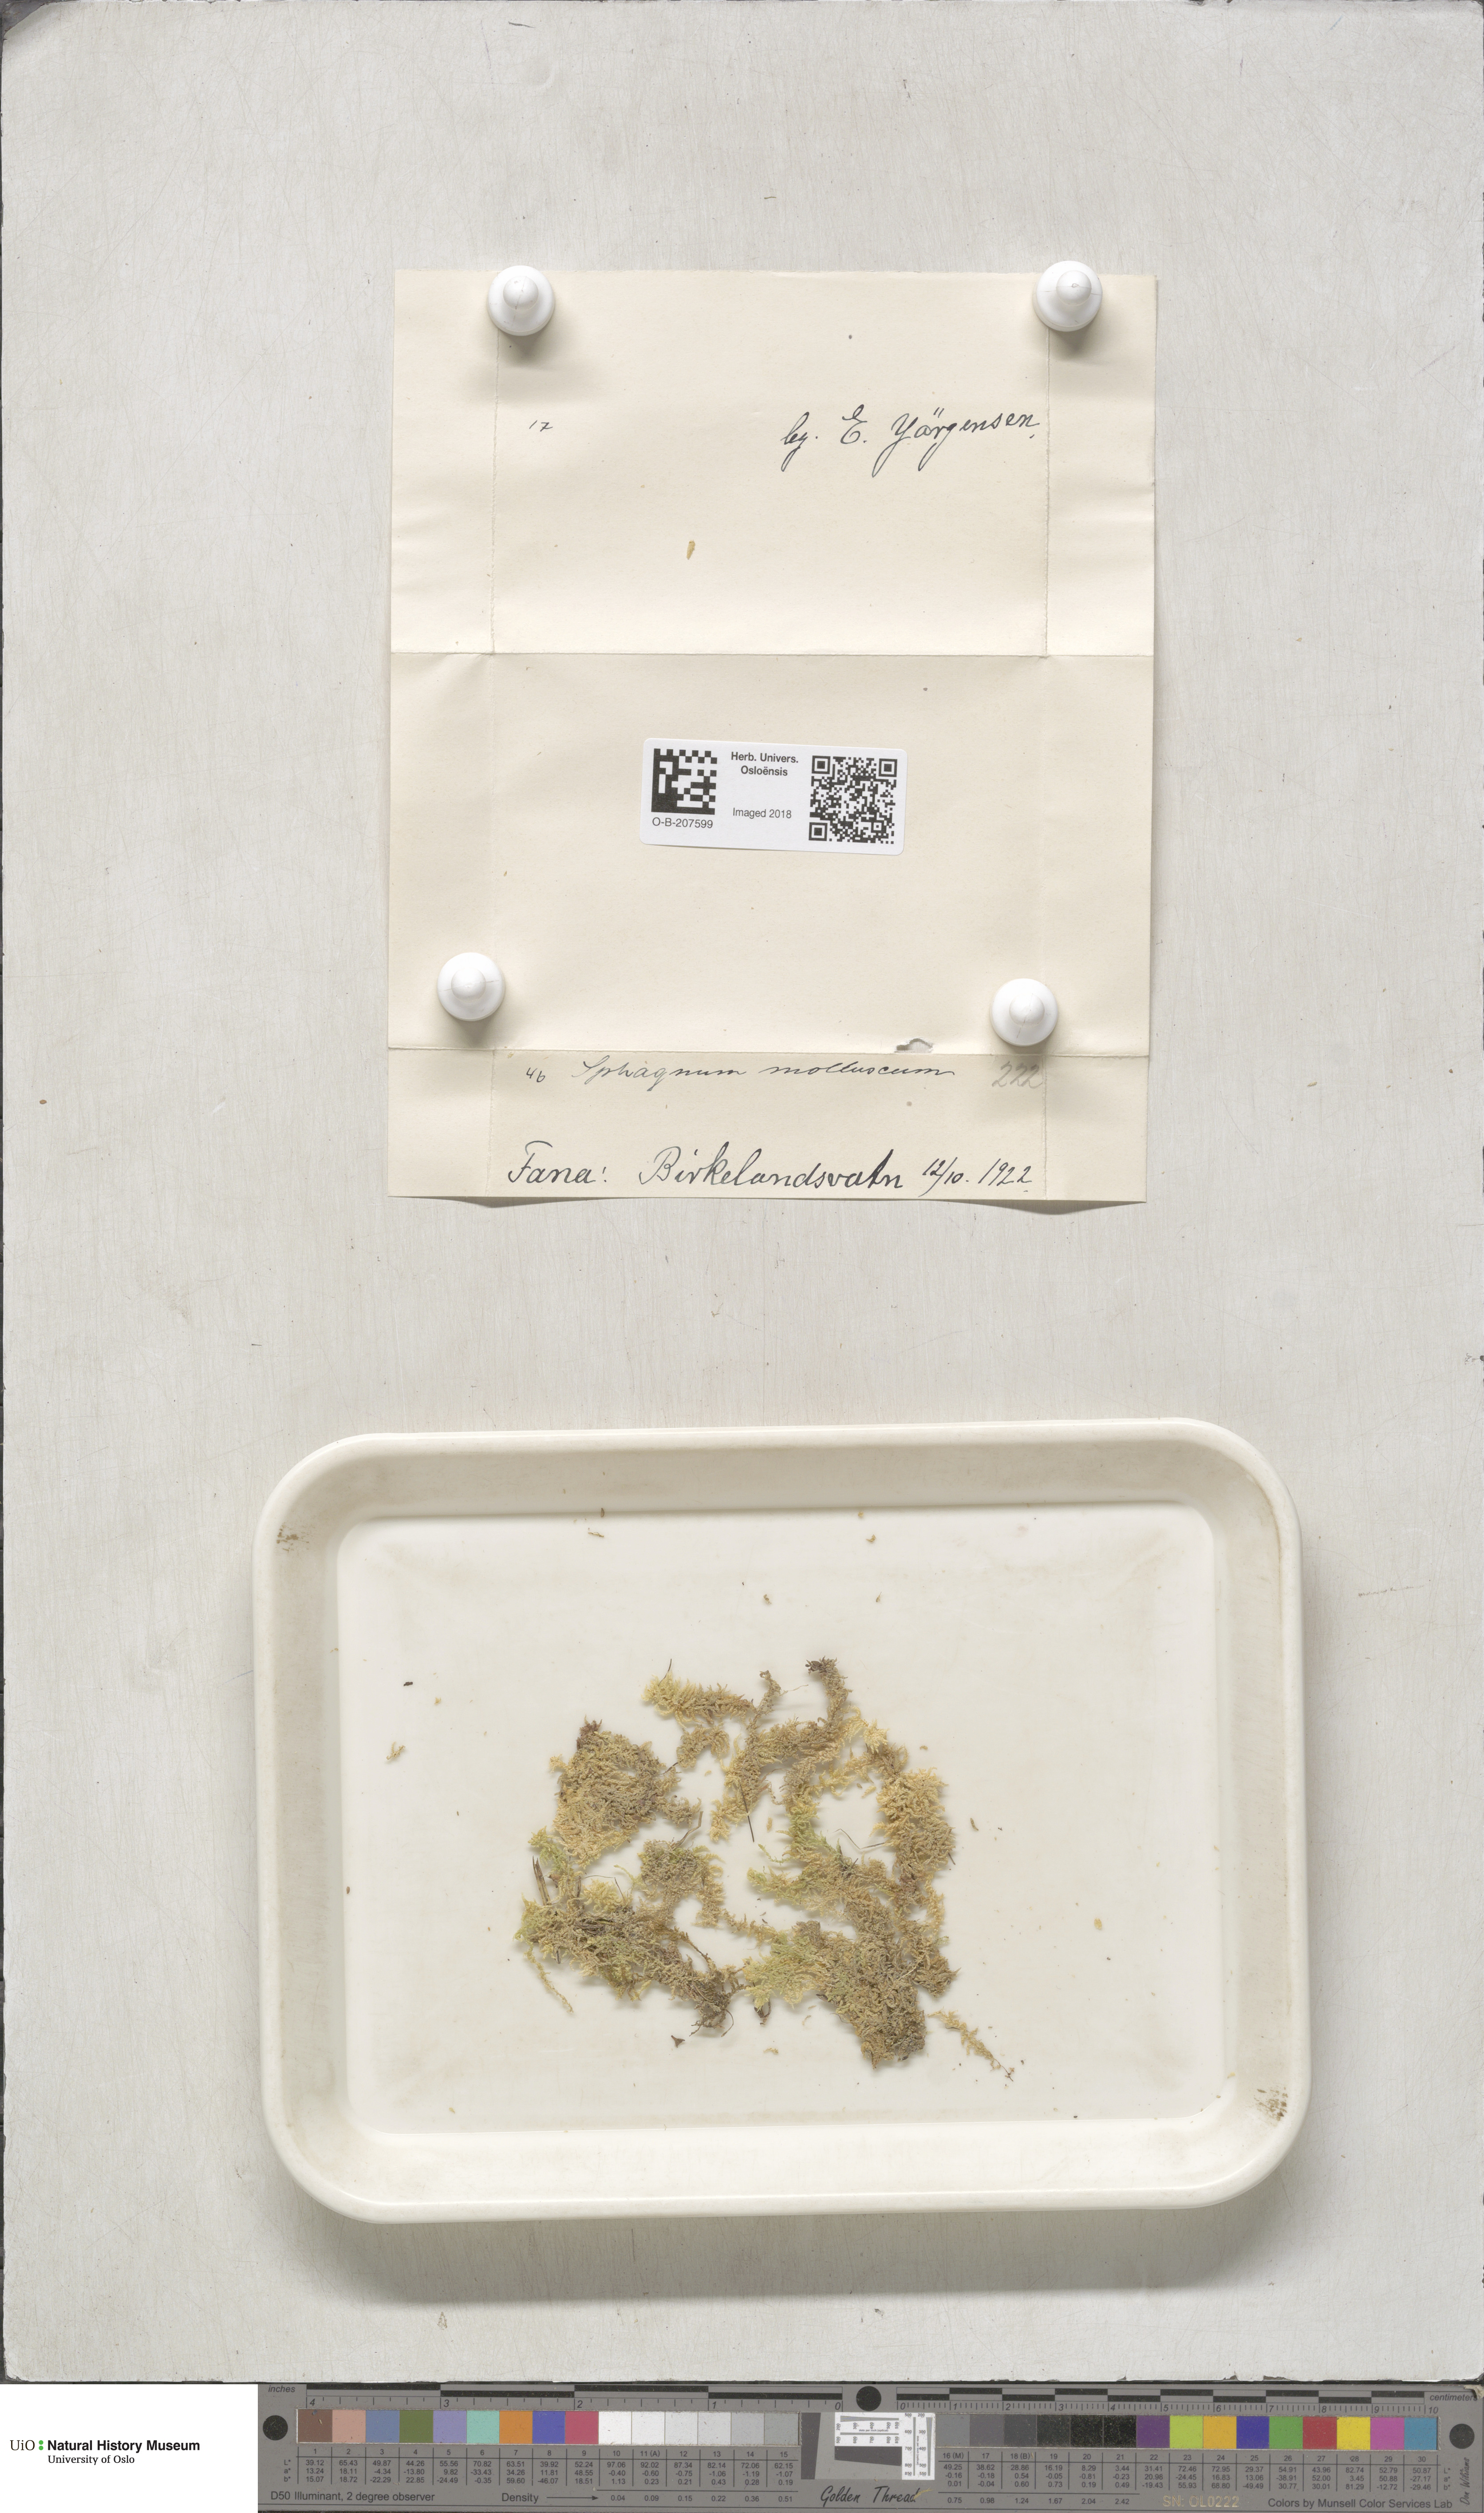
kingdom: Plantae
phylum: Bryophyta
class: Sphagnopsida
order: Sphagnales
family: Sphagnaceae
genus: Sphagnum
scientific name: Sphagnum tenellum
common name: Soft bog-moss
